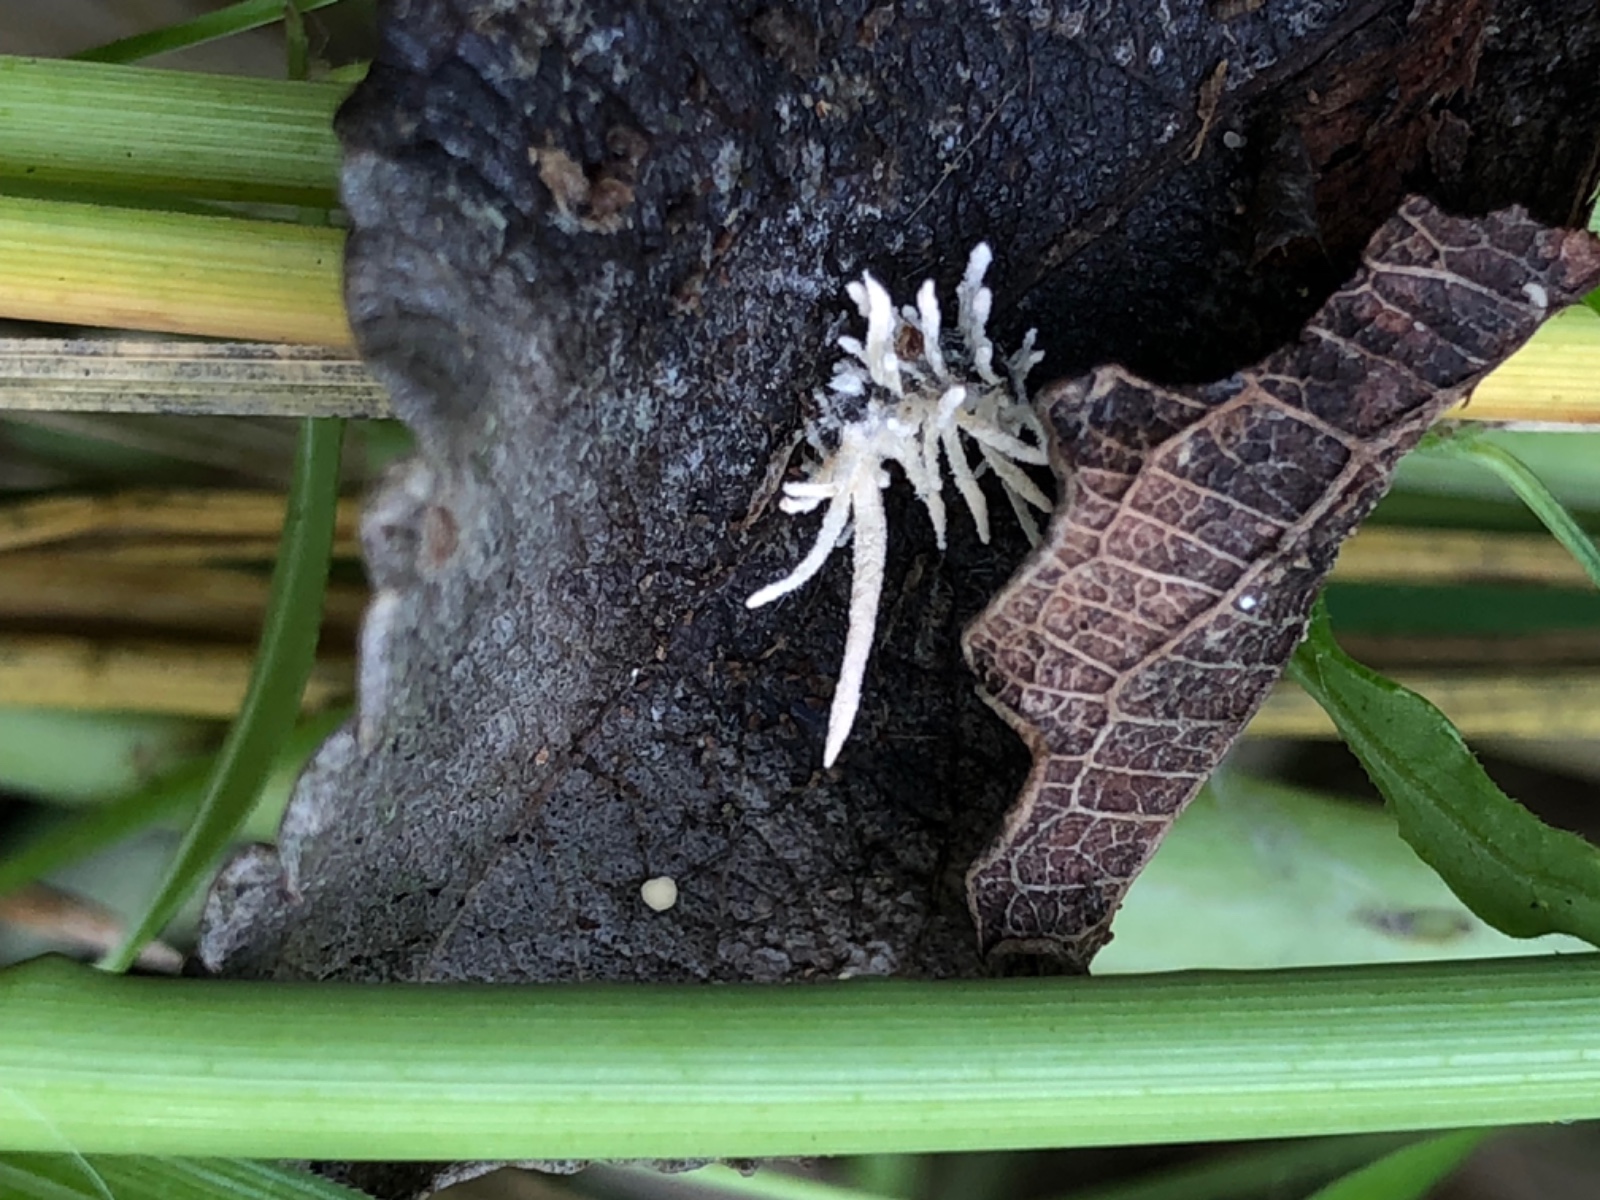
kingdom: Fungi
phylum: Ascomycota
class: Sordariomycetes
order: Hypocreales
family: Cordycipitaceae
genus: Gibellula
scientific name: Gibellula
